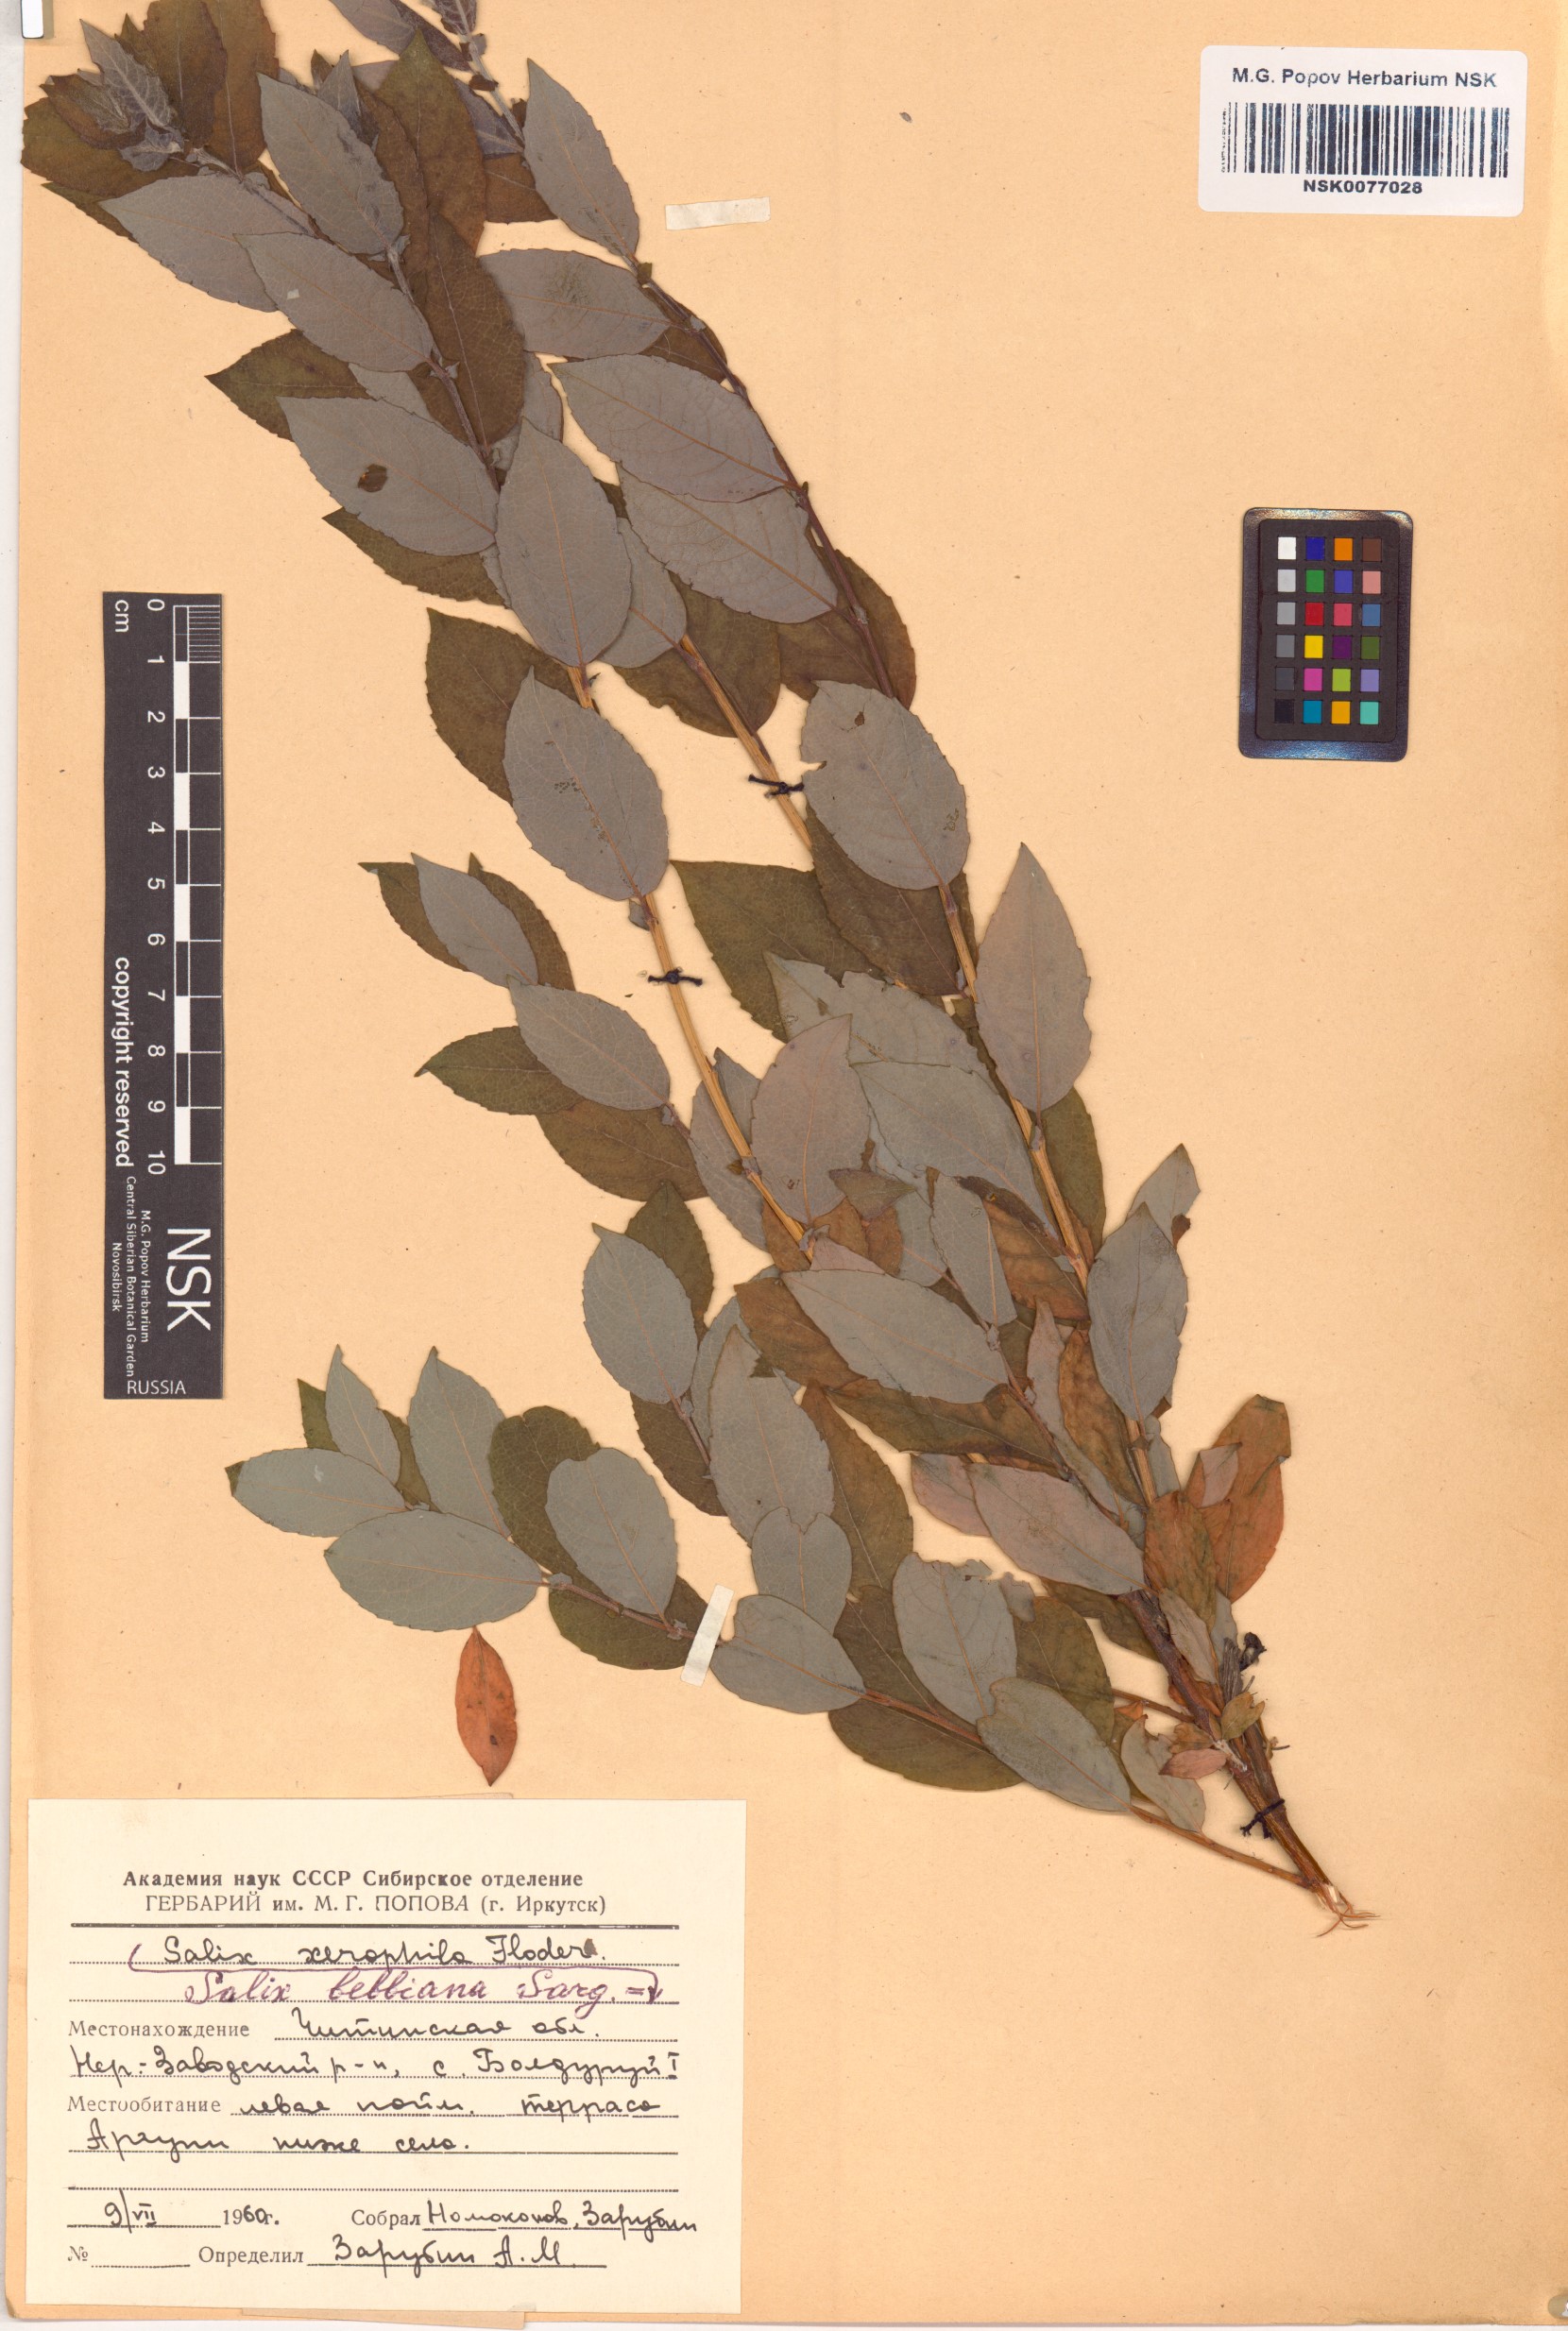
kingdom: Plantae
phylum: Tracheophyta
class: Magnoliopsida
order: Malpighiales
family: Salicaceae
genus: Salix
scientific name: Salix bebbiana
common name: Bebb's willow
